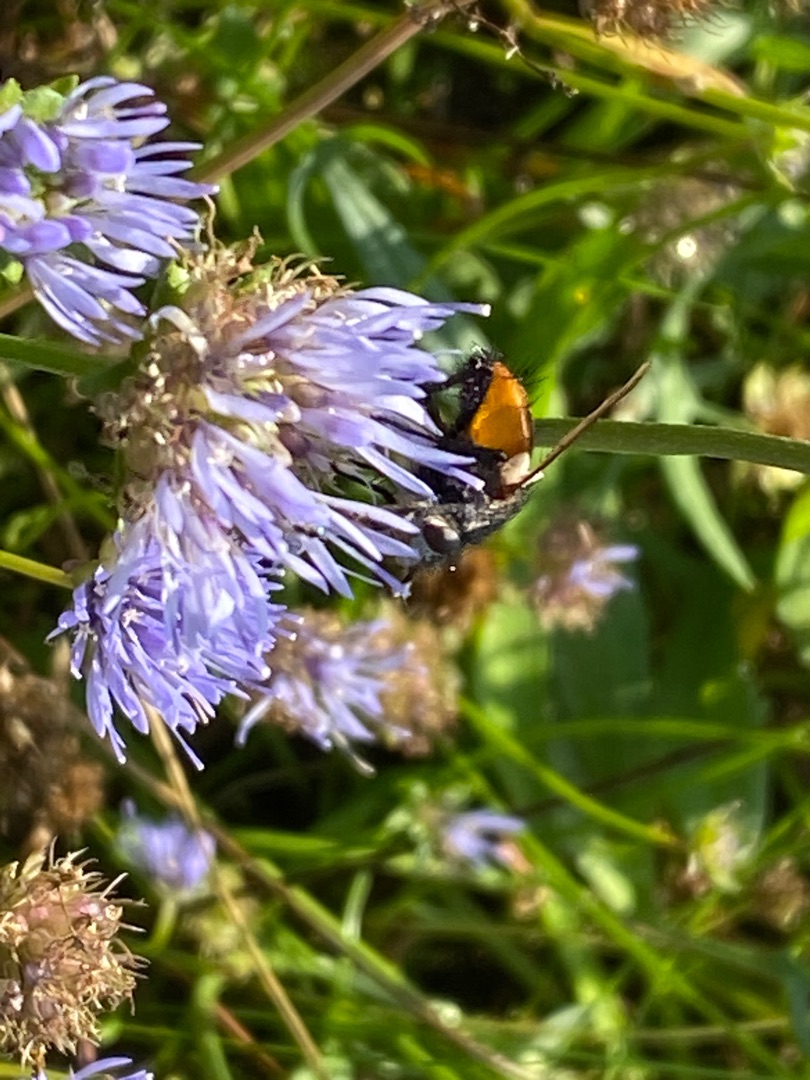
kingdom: Animalia
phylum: Arthropoda
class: Insecta
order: Diptera
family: Tachinidae
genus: Peleteria
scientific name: Peleteria rubescens
